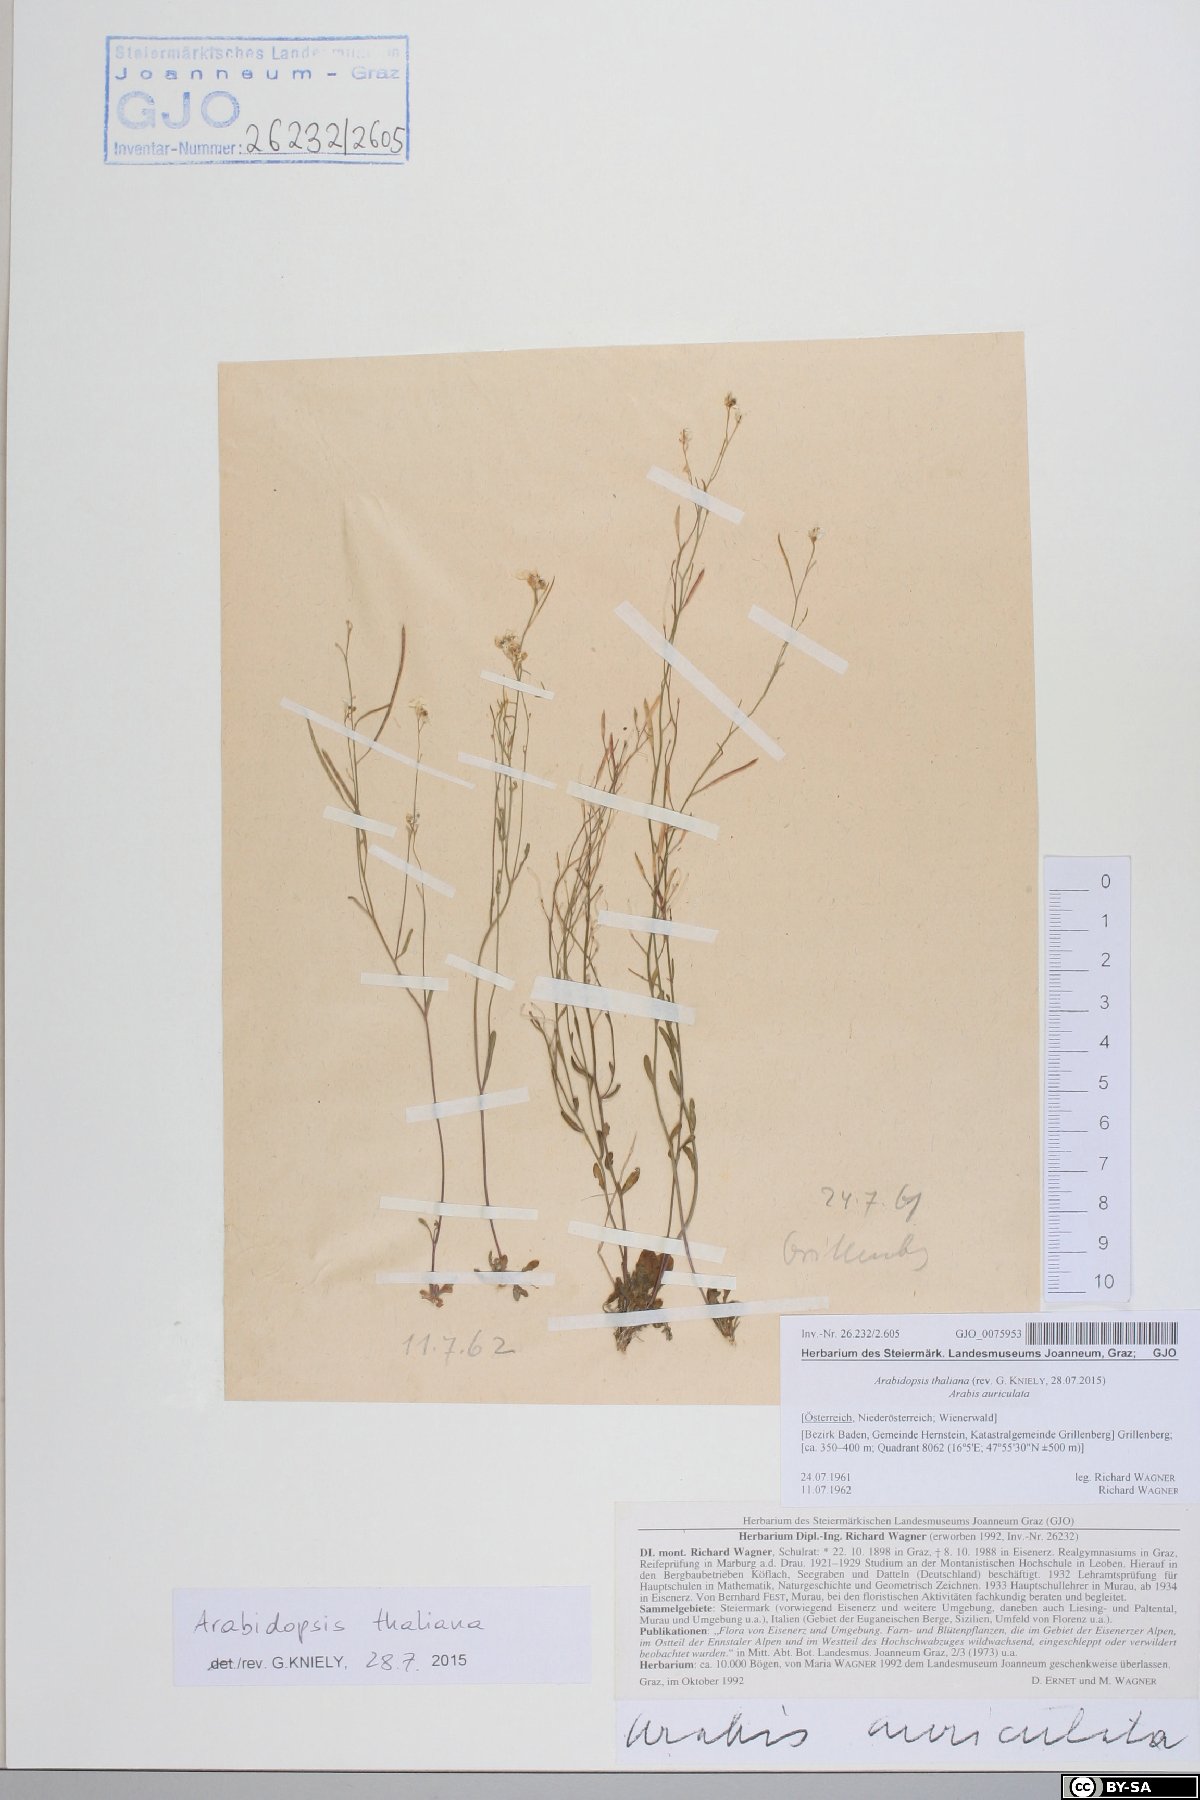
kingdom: Plantae
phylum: Tracheophyta
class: Magnoliopsida
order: Brassicales
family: Brassicaceae
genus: Arabidopsis
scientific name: Arabidopsis thaliana
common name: Thale cress
